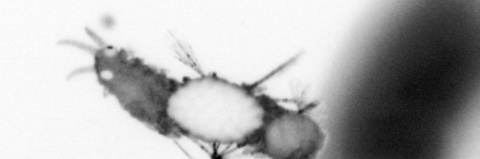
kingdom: Animalia
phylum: Annelida
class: Polychaeta
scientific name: Polychaeta
